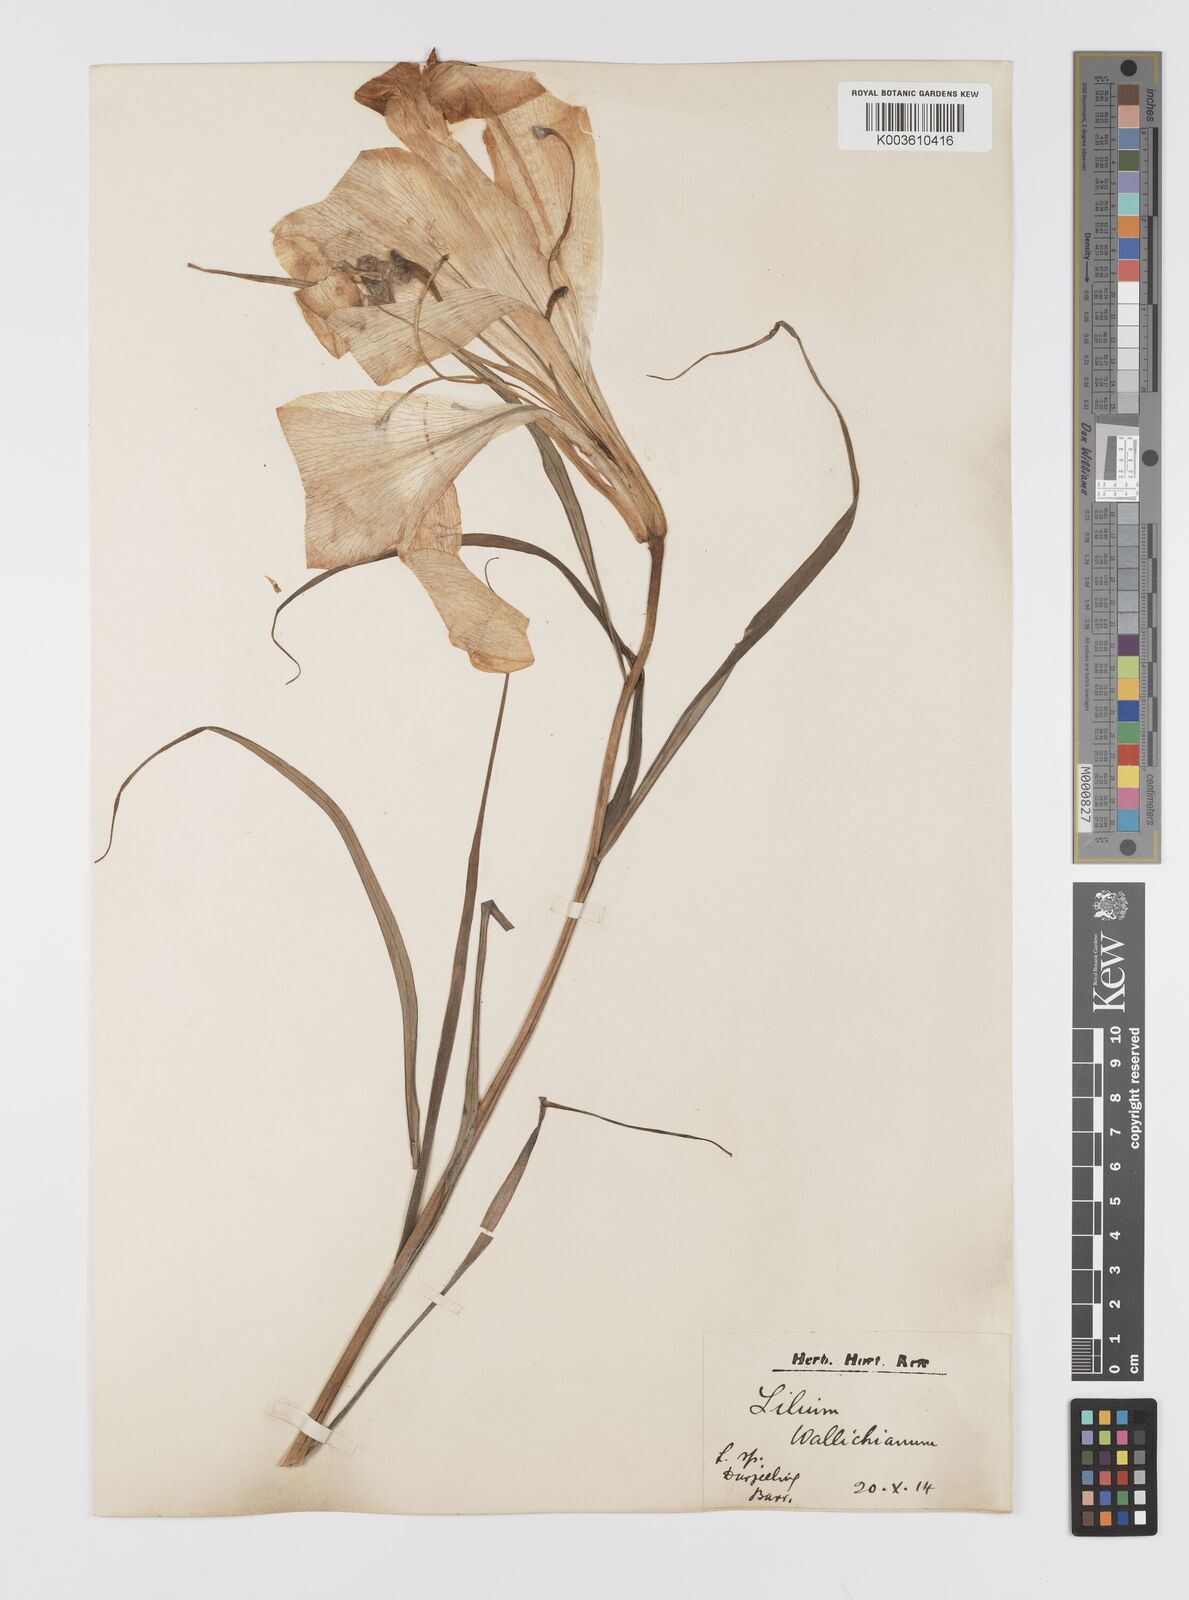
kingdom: Plantae
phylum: Tracheophyta
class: Liliopsida
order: Liliales
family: Liliaceae
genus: Lilium
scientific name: Lilium wallichianum
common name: Wallich's lily
